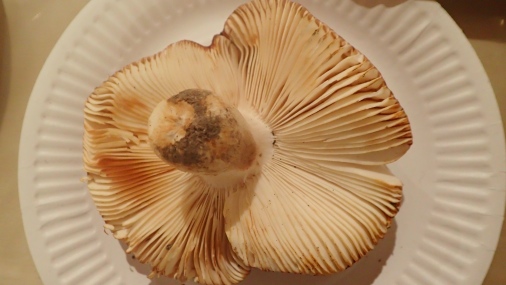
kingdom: Fungi
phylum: Basidiomycota
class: Agaricomycetes
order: Russulales
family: Russulaceae
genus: Russula
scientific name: Russula melliolens
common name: honning-skørhat
